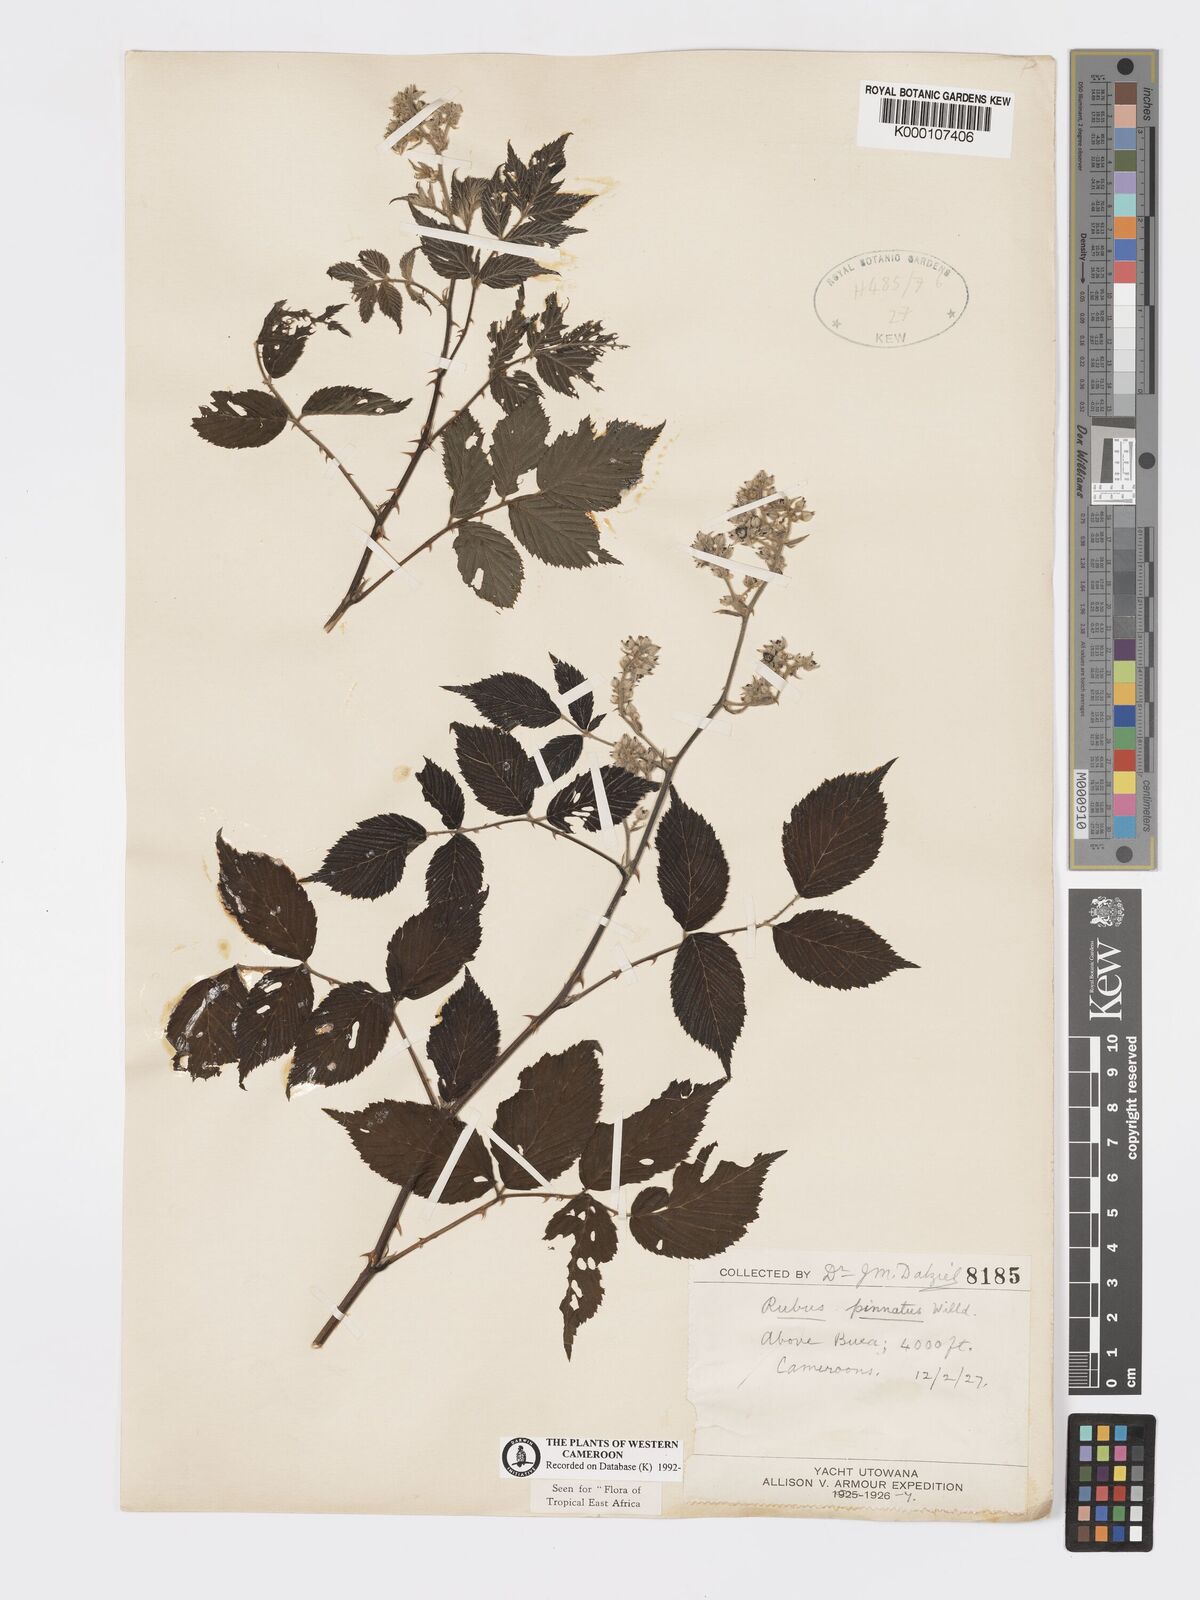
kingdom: Plantae
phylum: Tracheophyta
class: Magnoliopsida
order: Rosales
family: Rosaceae
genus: Rubus
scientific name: Rubus pinnatus
